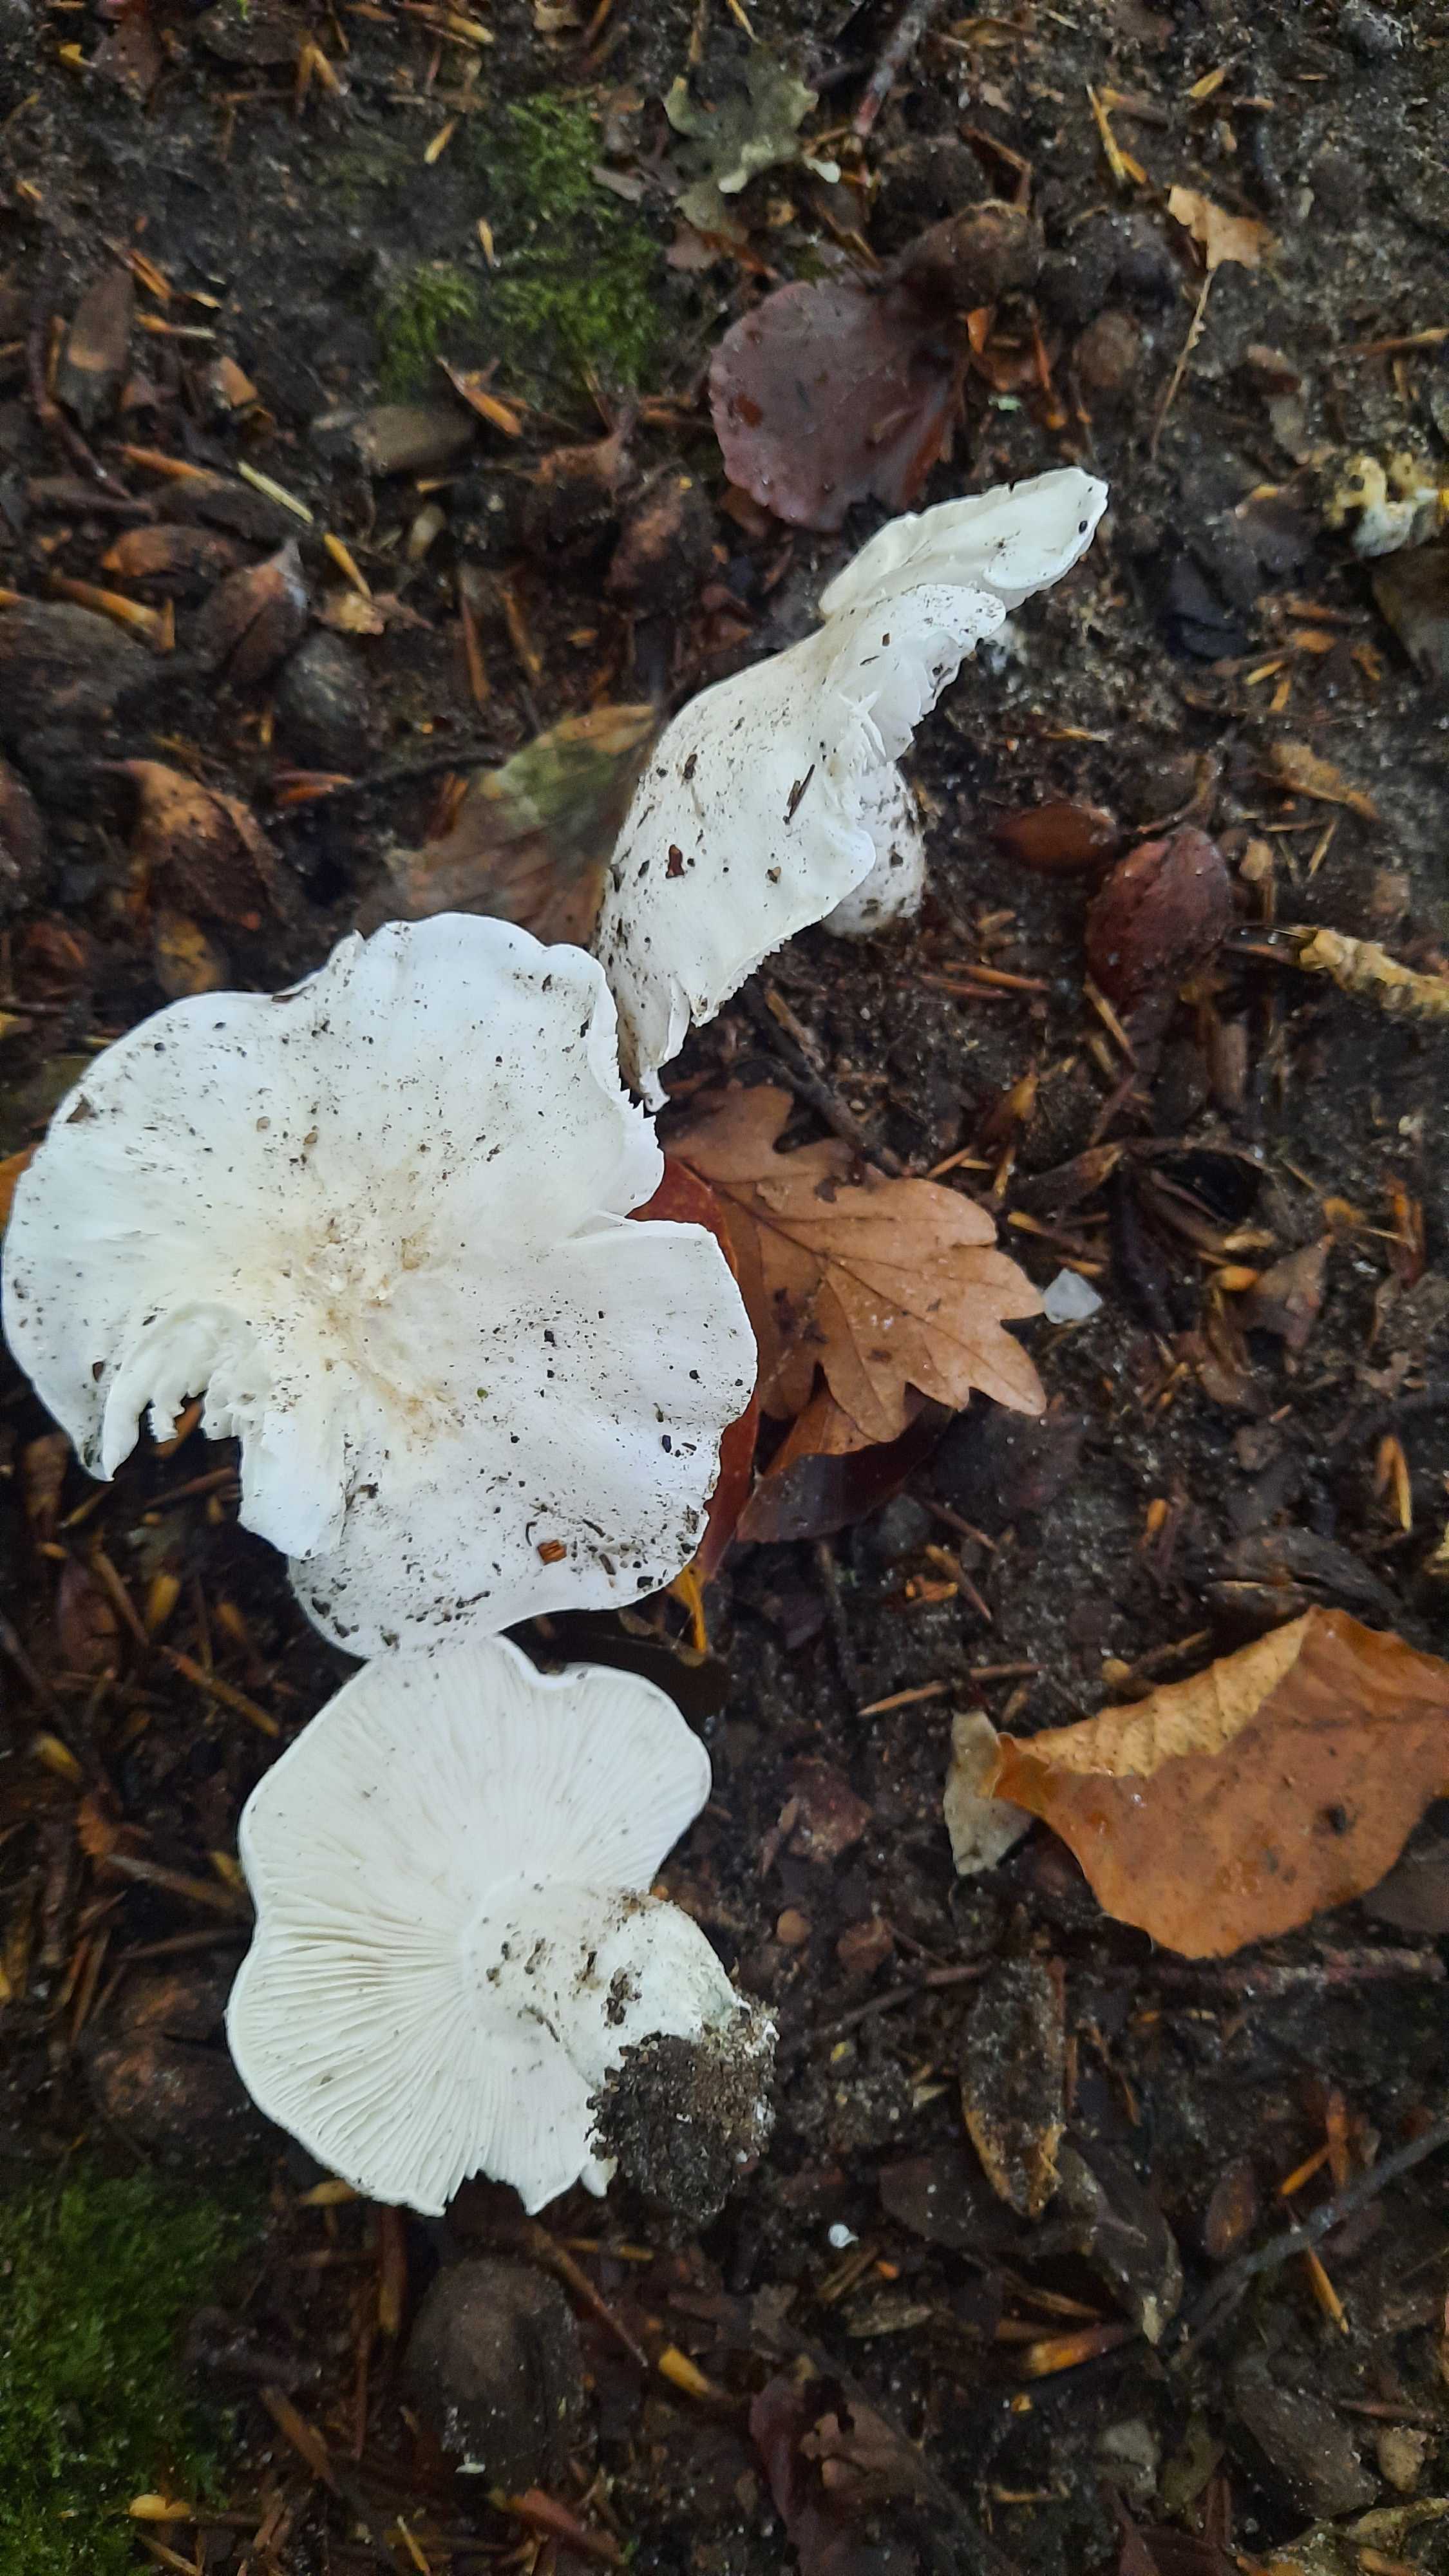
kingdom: Fungi
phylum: Basidiomycota
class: Agaricomycetes
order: Agaricales
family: Tricholomataceae
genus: Tricholoma
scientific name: Tricholoma columbetta
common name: silke-ridderhat
